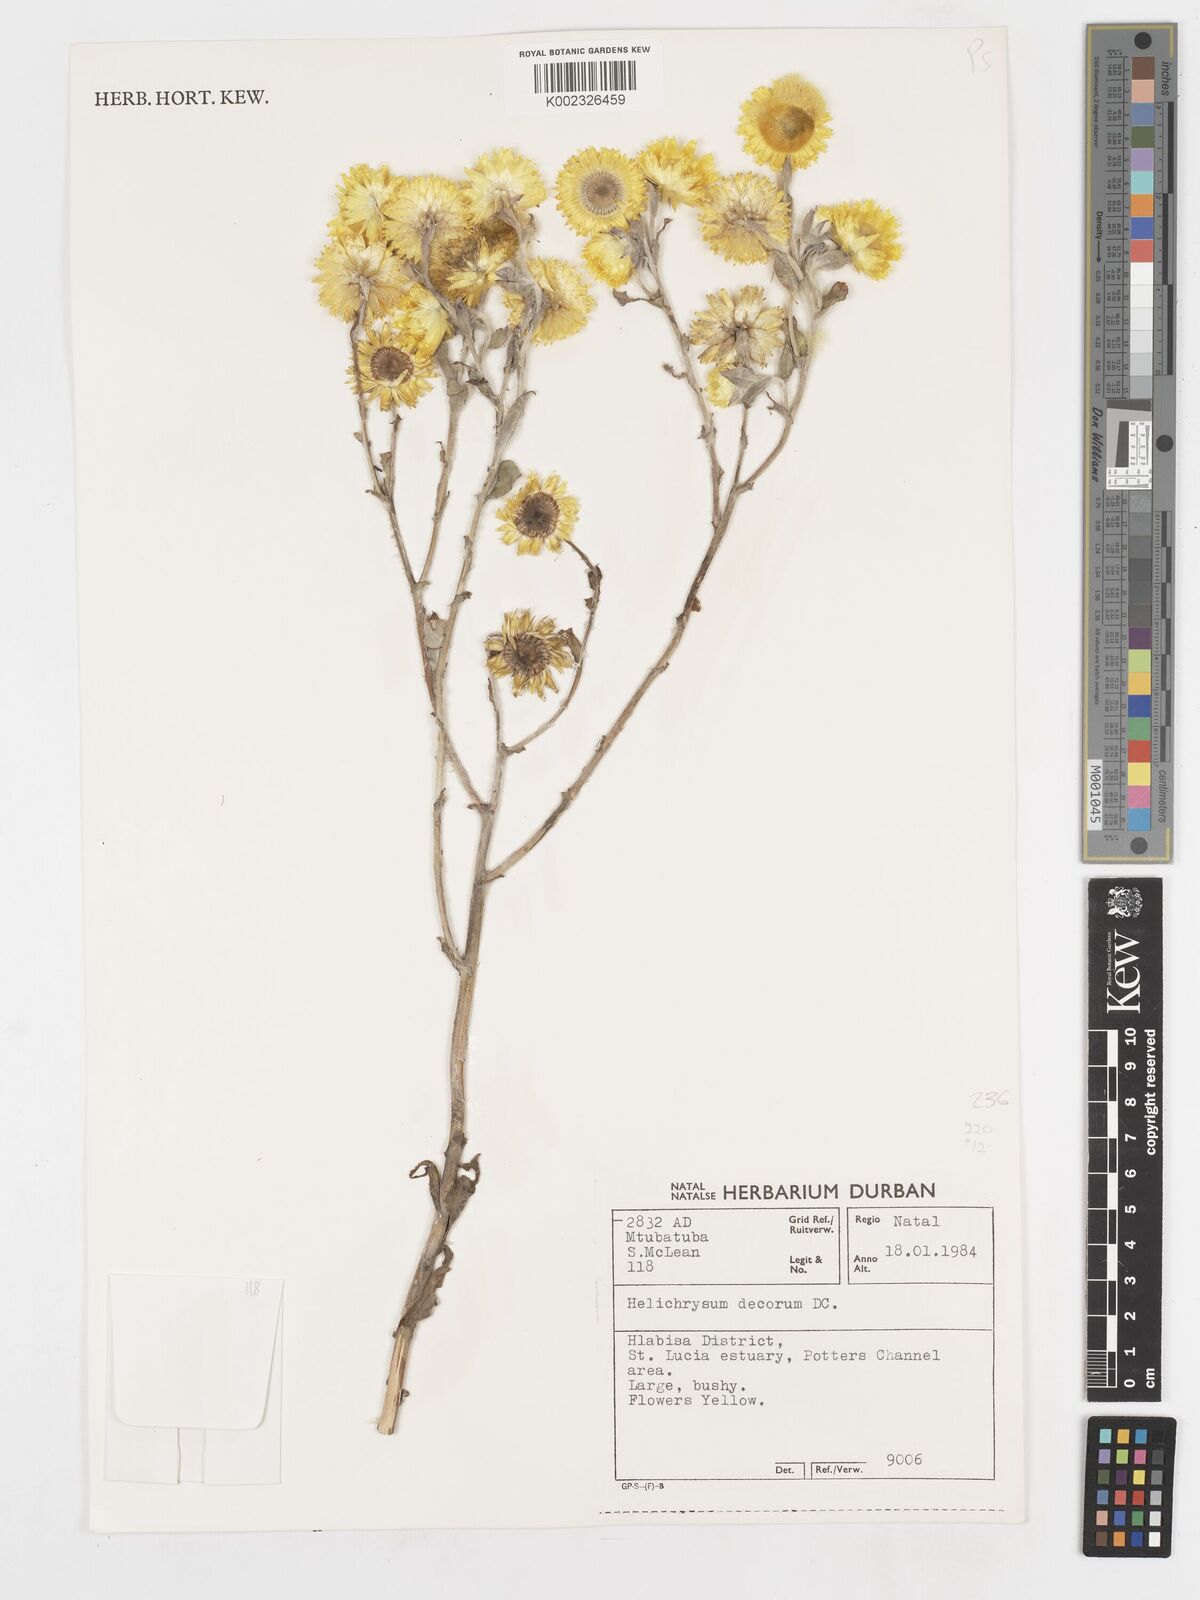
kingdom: Plantae
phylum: Tracheophyta
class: Magnoliopsida
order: Asterales
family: Asteraceae
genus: Helichrysum
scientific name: Helichrysum decorum
